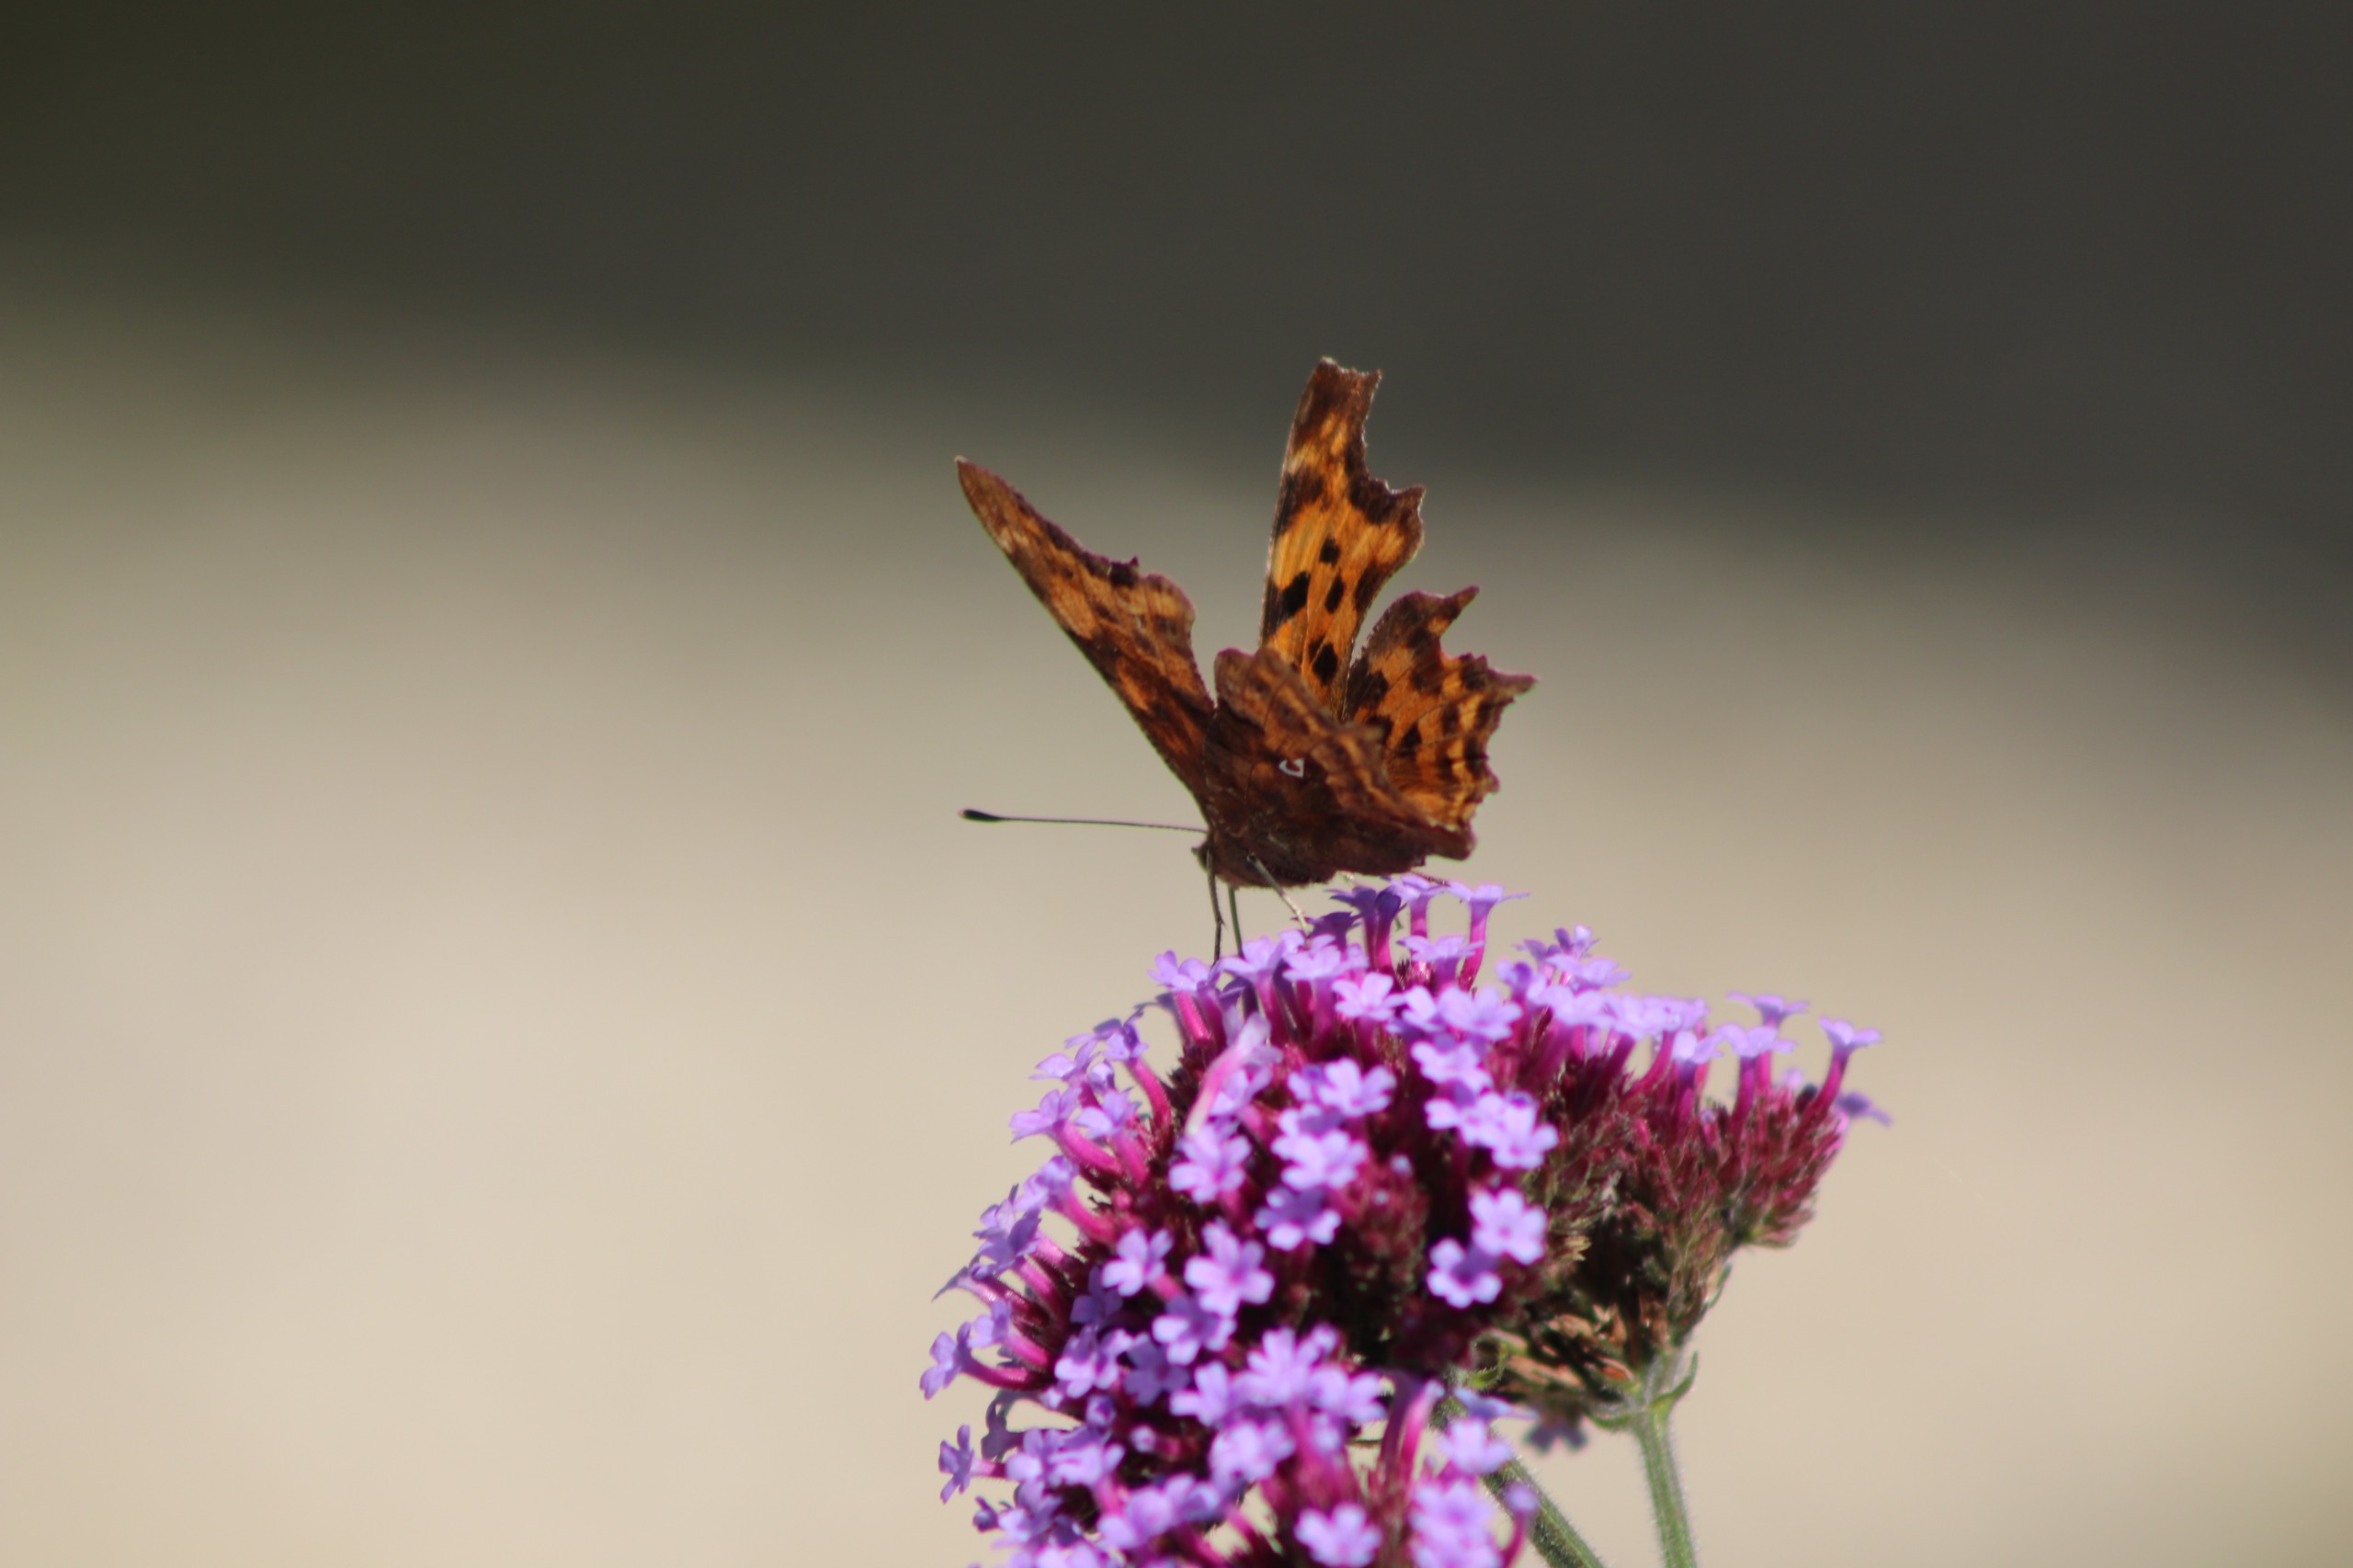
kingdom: Animalia
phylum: Arthropoda
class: Insecta
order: Lepidoptera
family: Nymphalidae
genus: Polygonia
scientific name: Polygonia c-album
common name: Det hvide C
